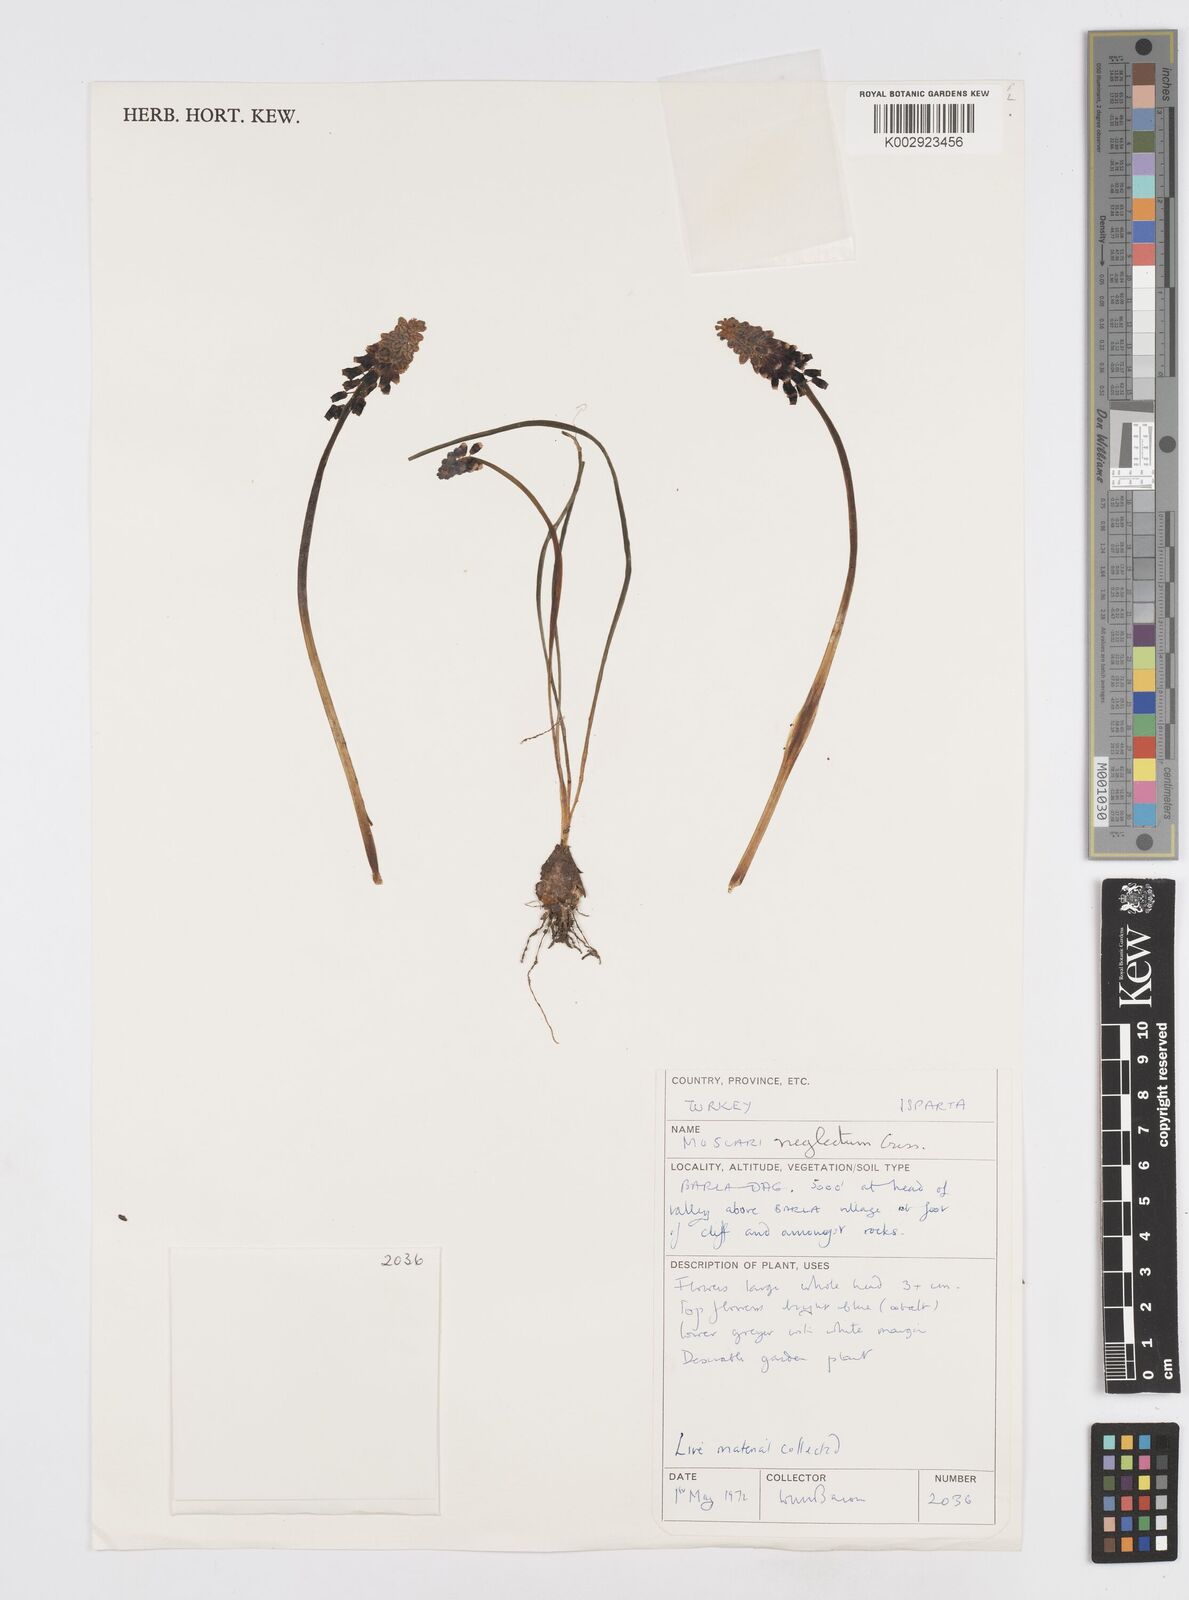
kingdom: Plantae
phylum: Tracheophyta
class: Liliopsida
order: Asparagales
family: Asparagaceae
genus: Muscari
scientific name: Muscari neglectum
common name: Grape-hyacinth
